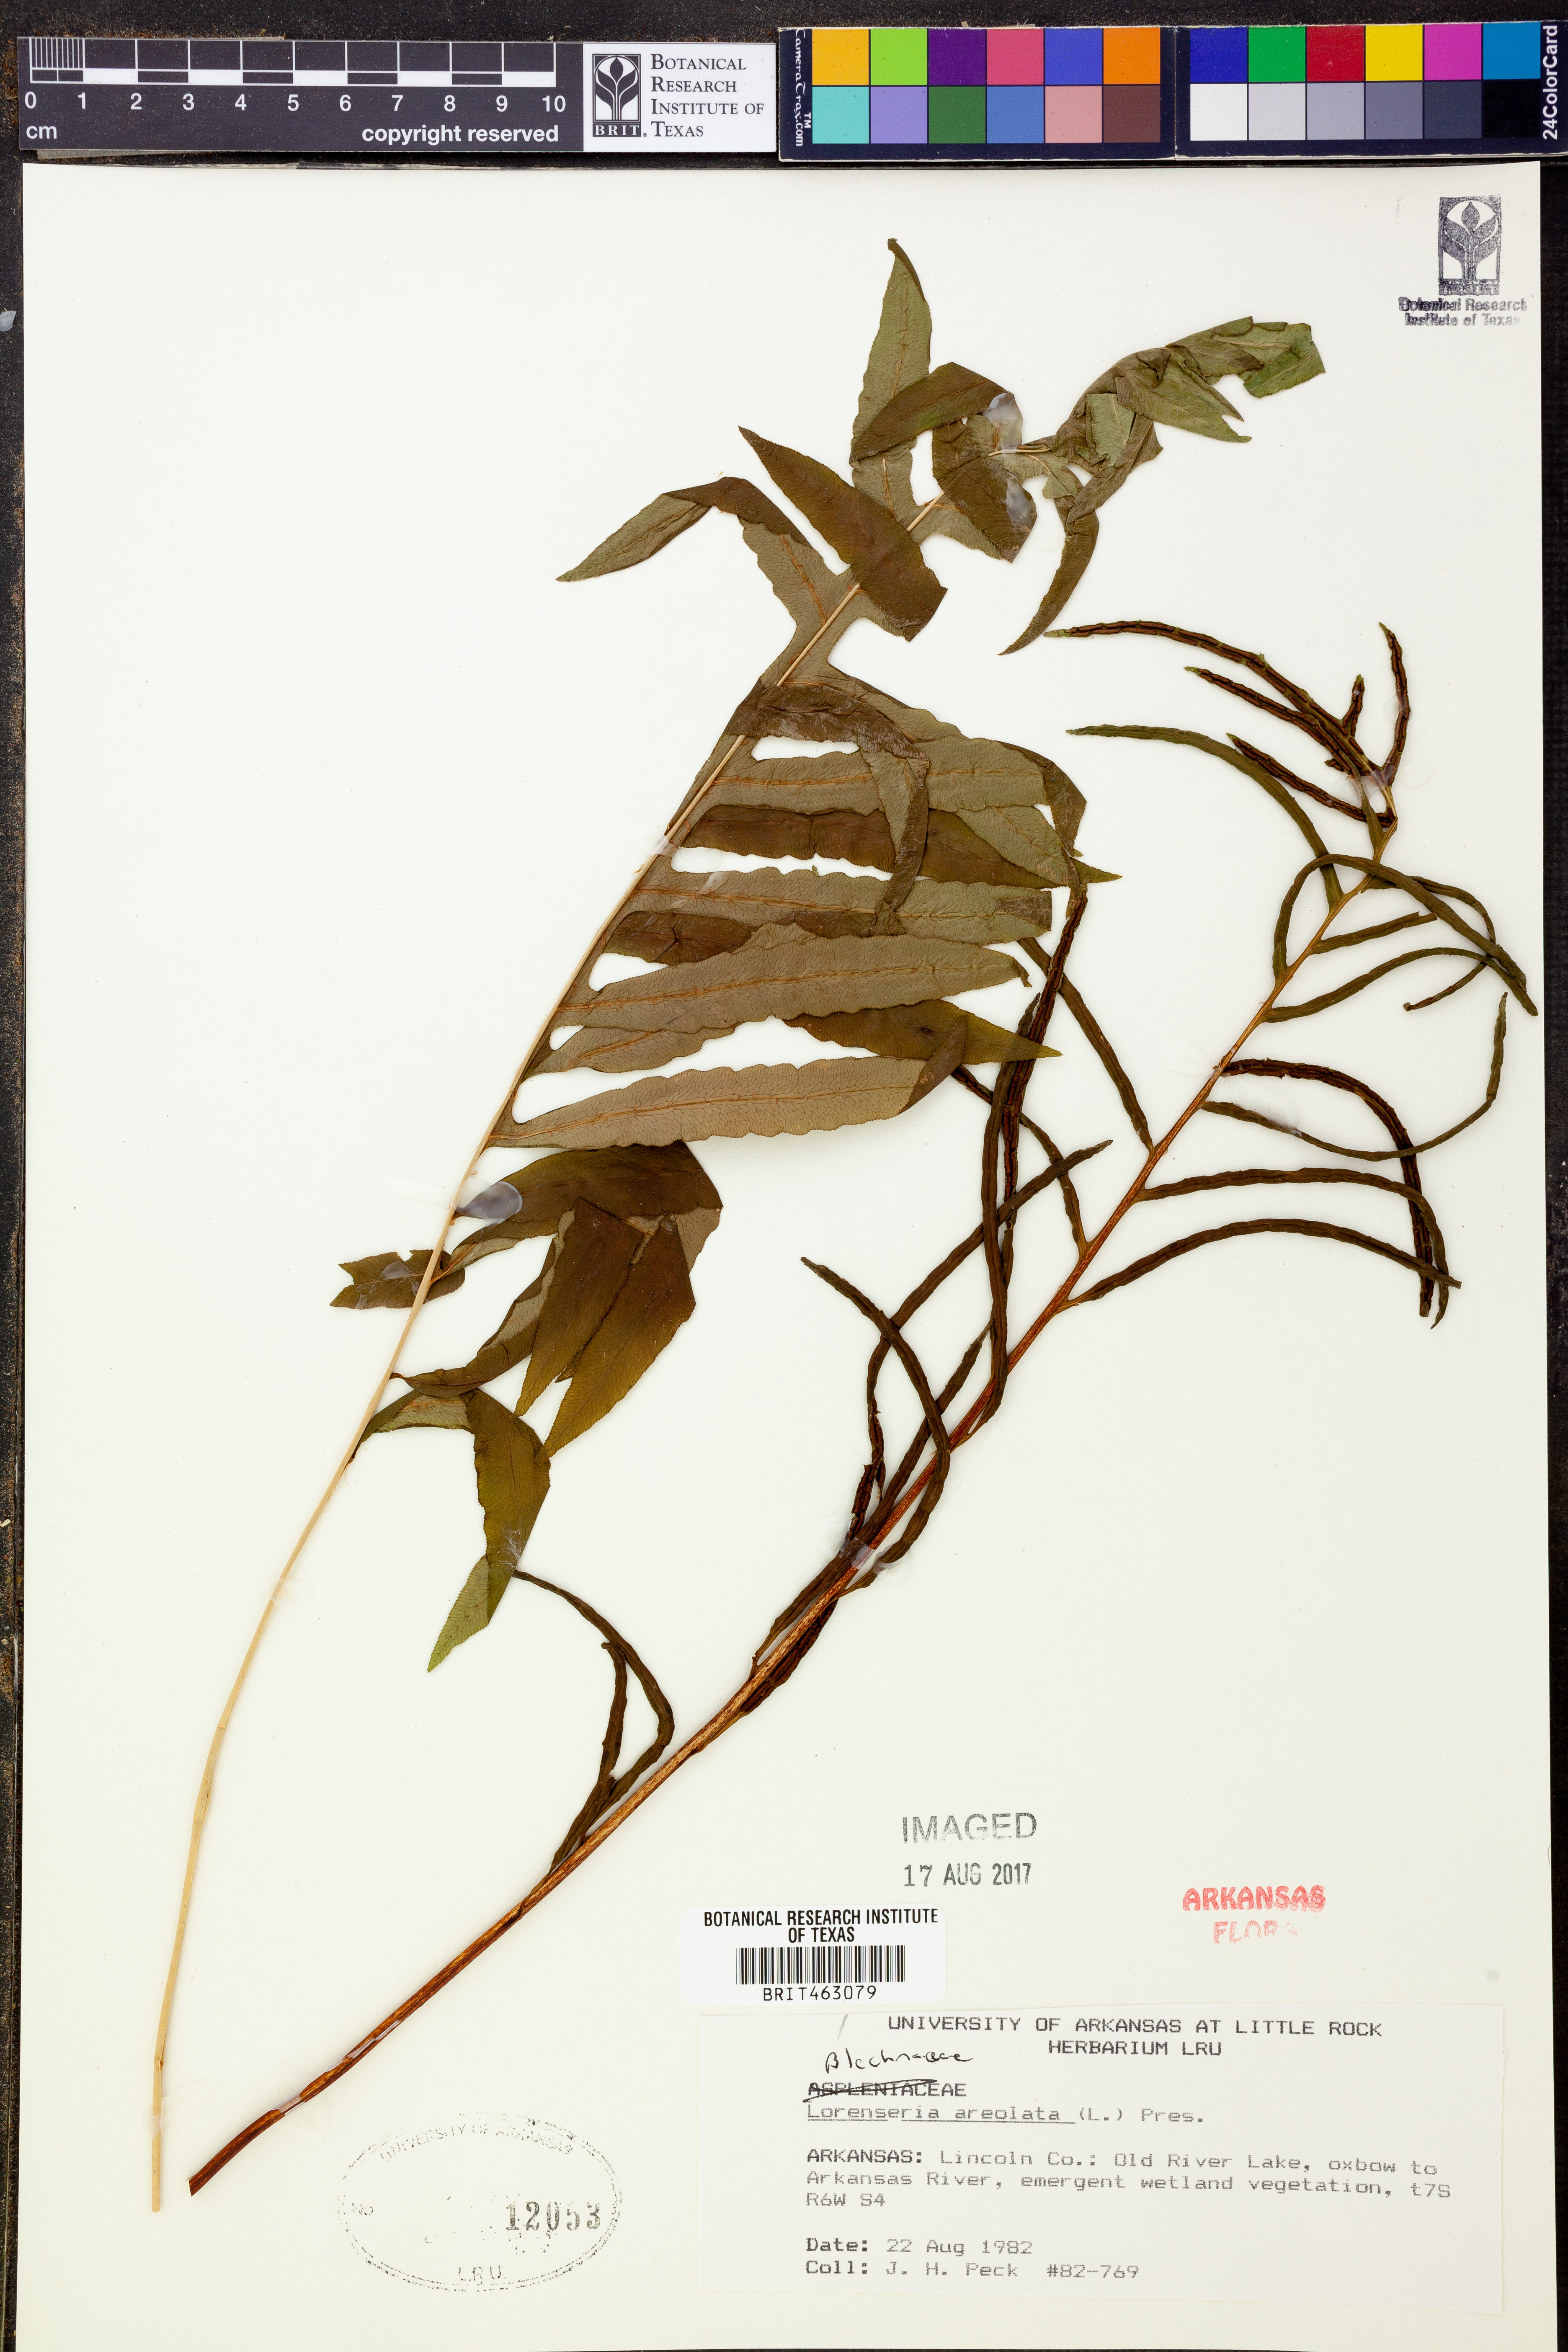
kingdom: Plantae
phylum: Tracheophyta
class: Polypodiopsida
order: Polypodiales
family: Blechnaceae
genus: Lorinseria
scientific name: Lorinseria areolata
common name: Dwarf chain fern
